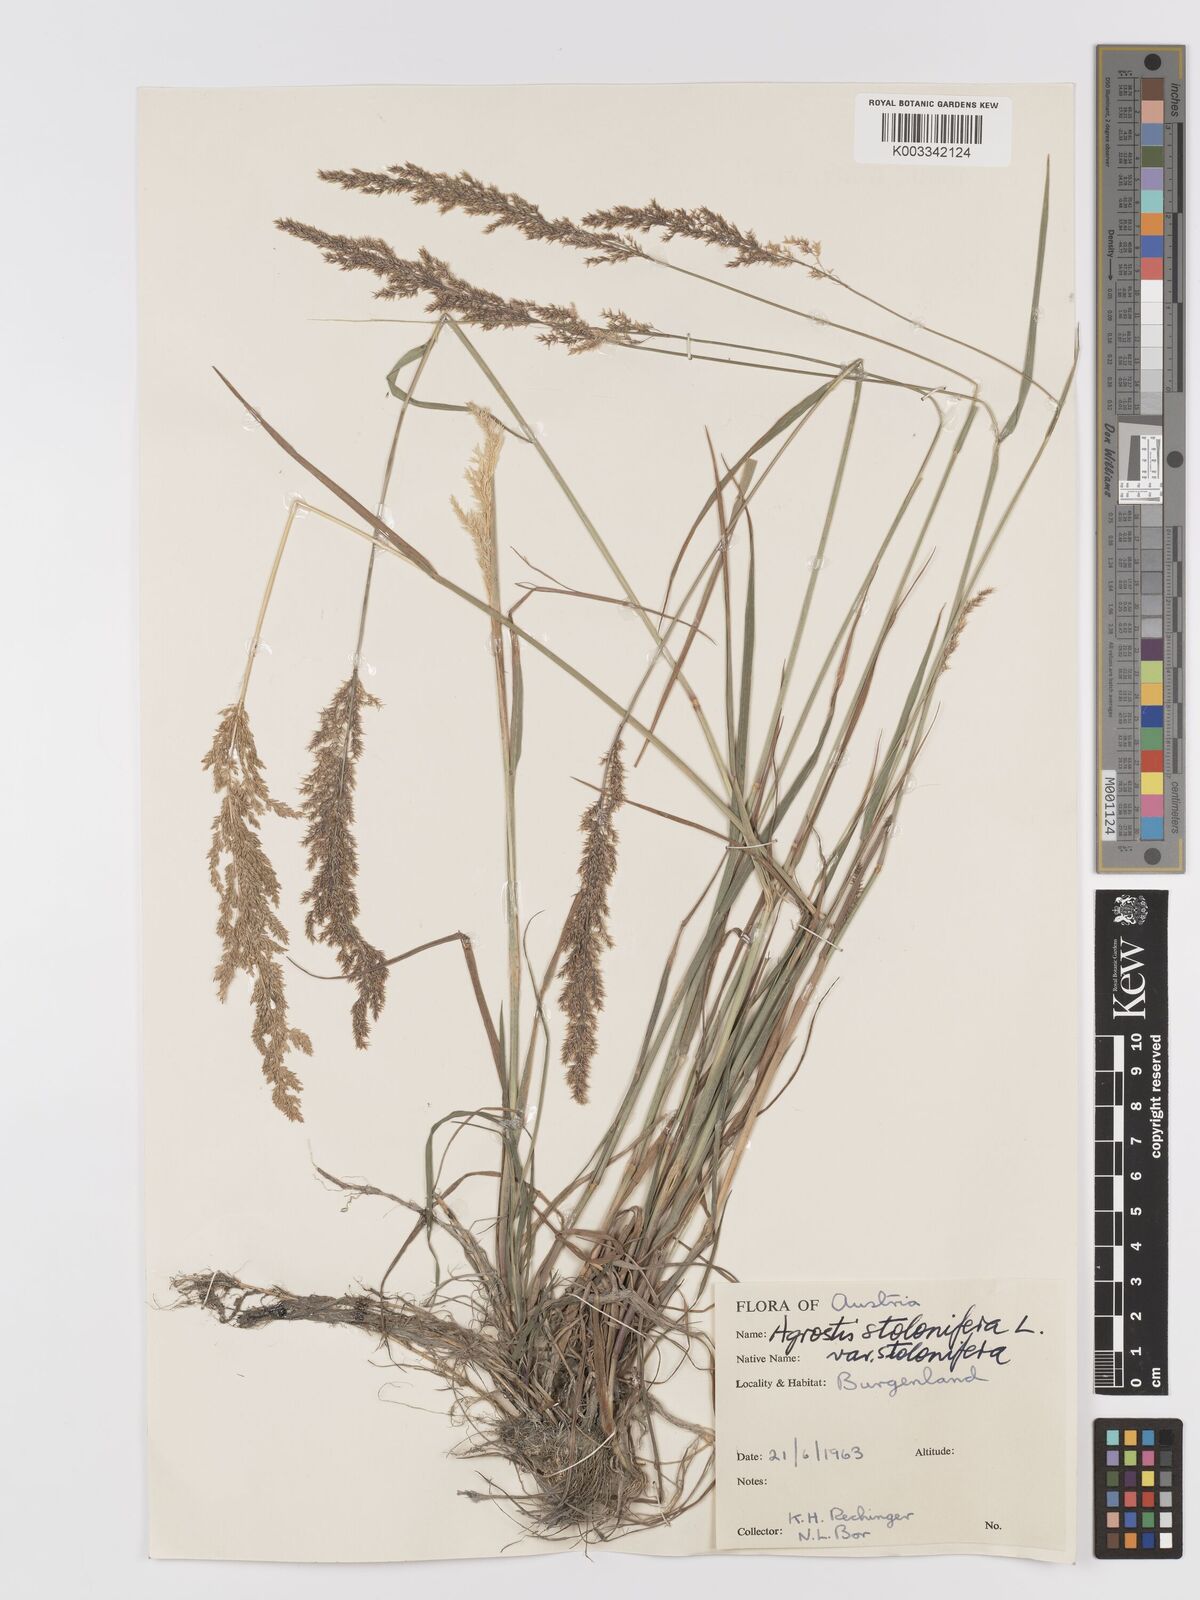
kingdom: Plantae
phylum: Tracheophyta
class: Liliopsida
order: Poales
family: Poaceae
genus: Agrostis
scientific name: Agrostis stolonifera
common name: Creeping bentgrass
